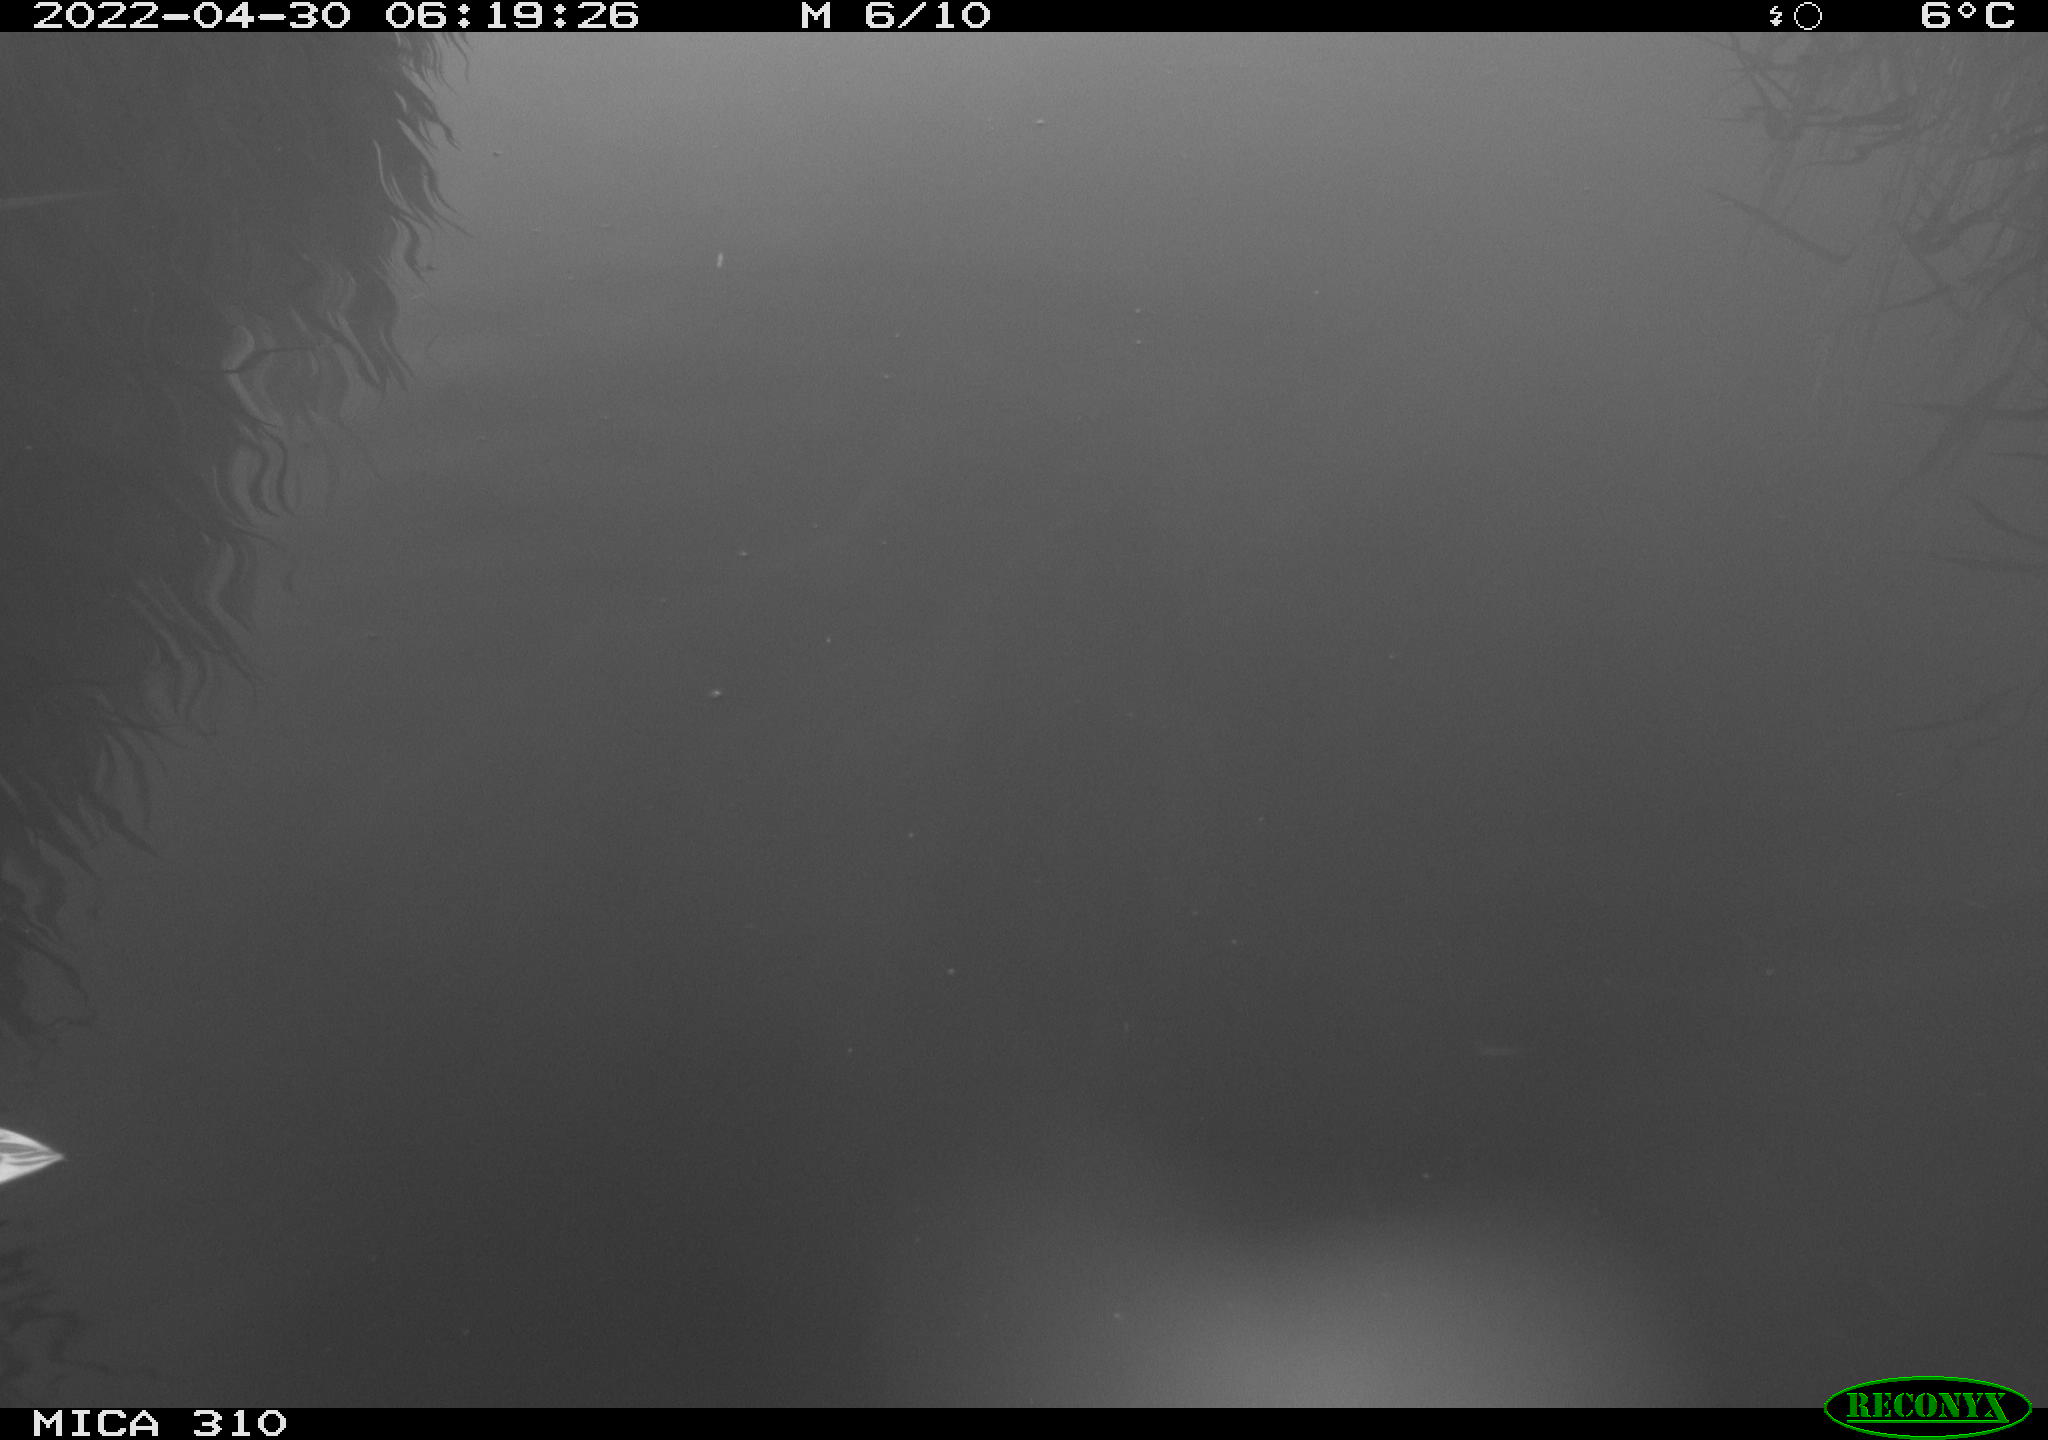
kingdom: Animalia
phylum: Chordata
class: Aves
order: Anseriformes
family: Anatidae
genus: Anas
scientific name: Anas platyrhynchos
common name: Mallard
